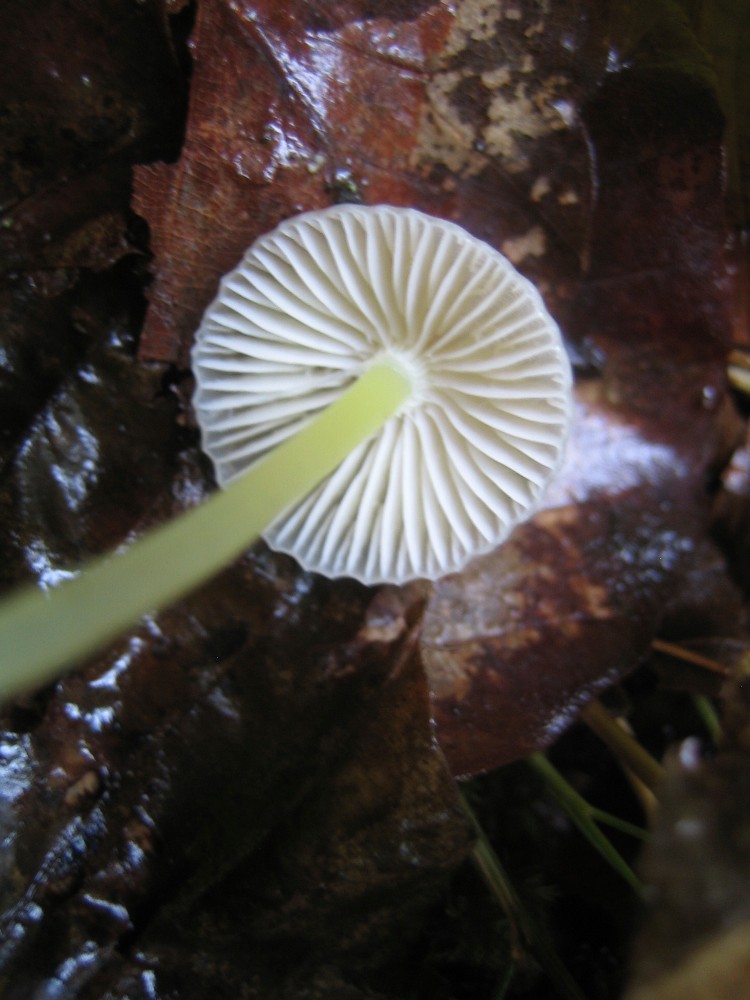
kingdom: Fungi
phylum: Basidiomycota
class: Agaricomycetes
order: Agaricales
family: Mycenaceae
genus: Mycena
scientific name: Mycena epipterygia
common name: gulstokket huesvamp
